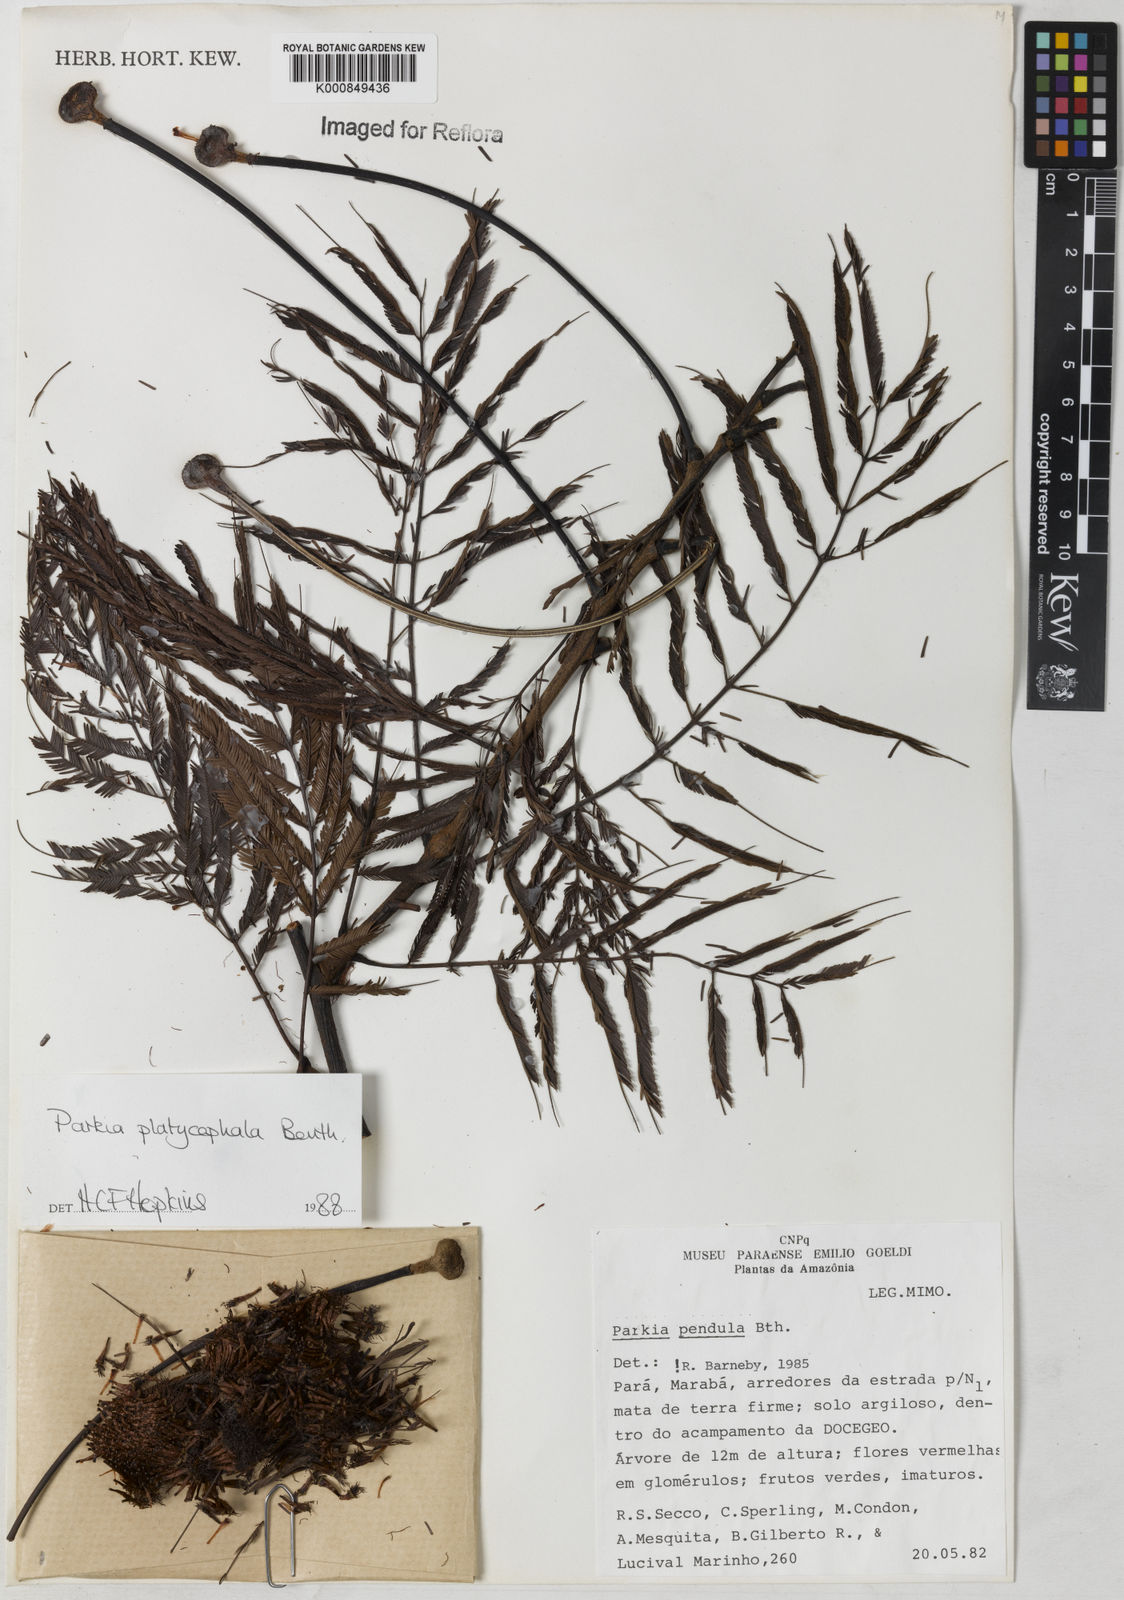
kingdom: Plantae
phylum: Tracheophyta
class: Magnoliopsida
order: Fabales
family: Fabaceae
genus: Parkia
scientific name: Parkia platycephala
